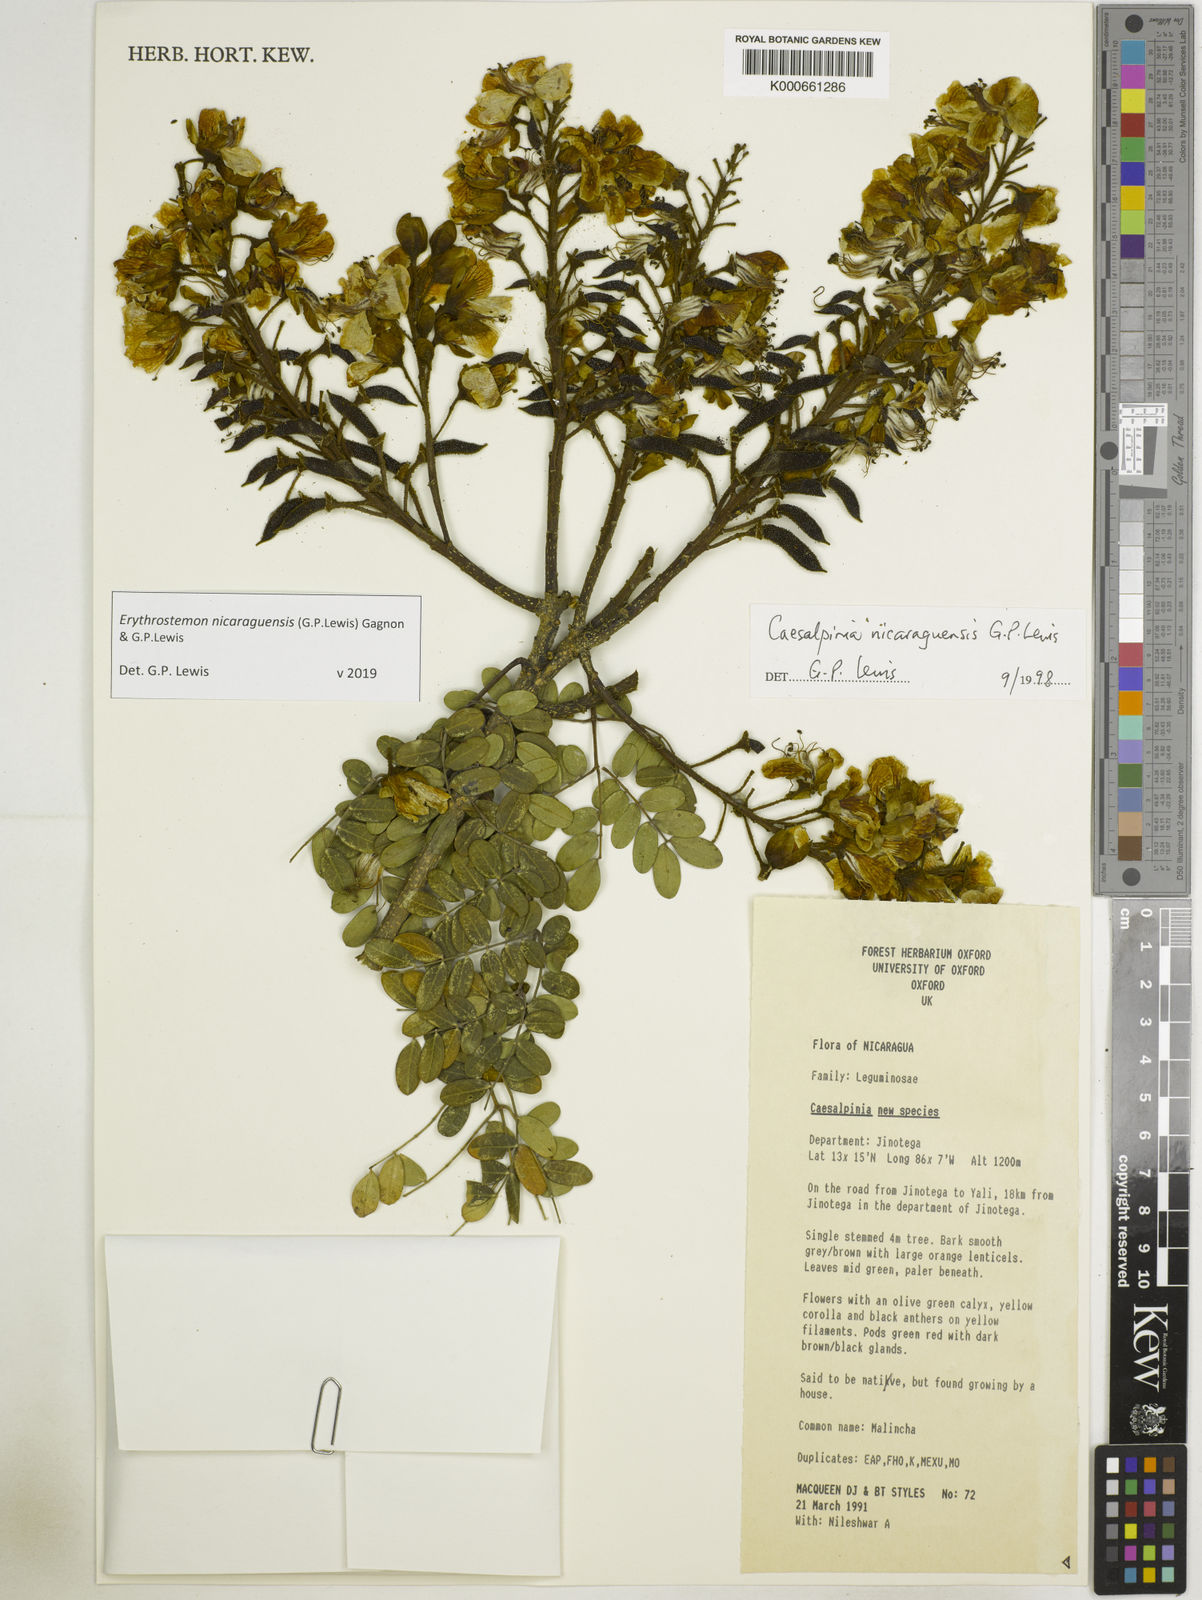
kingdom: Plantae
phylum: Tracheophyta
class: Magnoliopsida
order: Fabales
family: Fabaceae
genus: Erythrostemon
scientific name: Erythrostemon nicaraguensis
